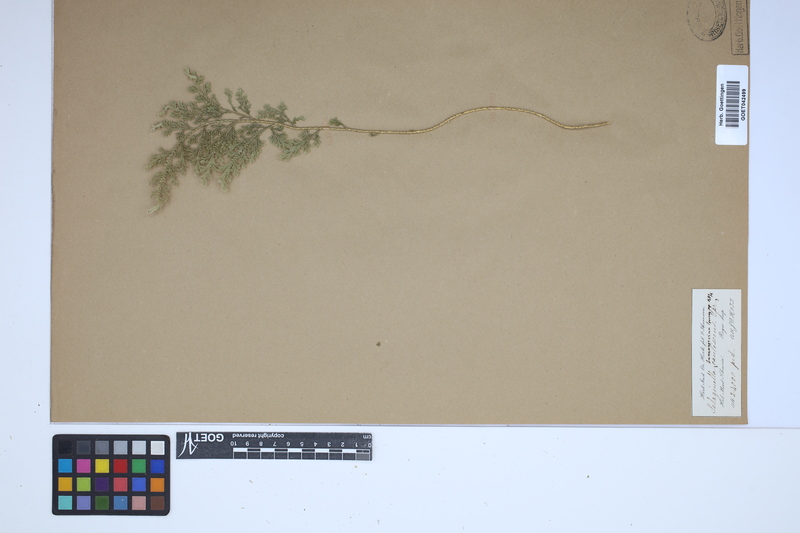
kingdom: Plantae
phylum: Tracheophyta
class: Lycopodiopsida
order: Selaginellales
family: Selaginellaceae
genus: Selaginella
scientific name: Selaginella involvens
